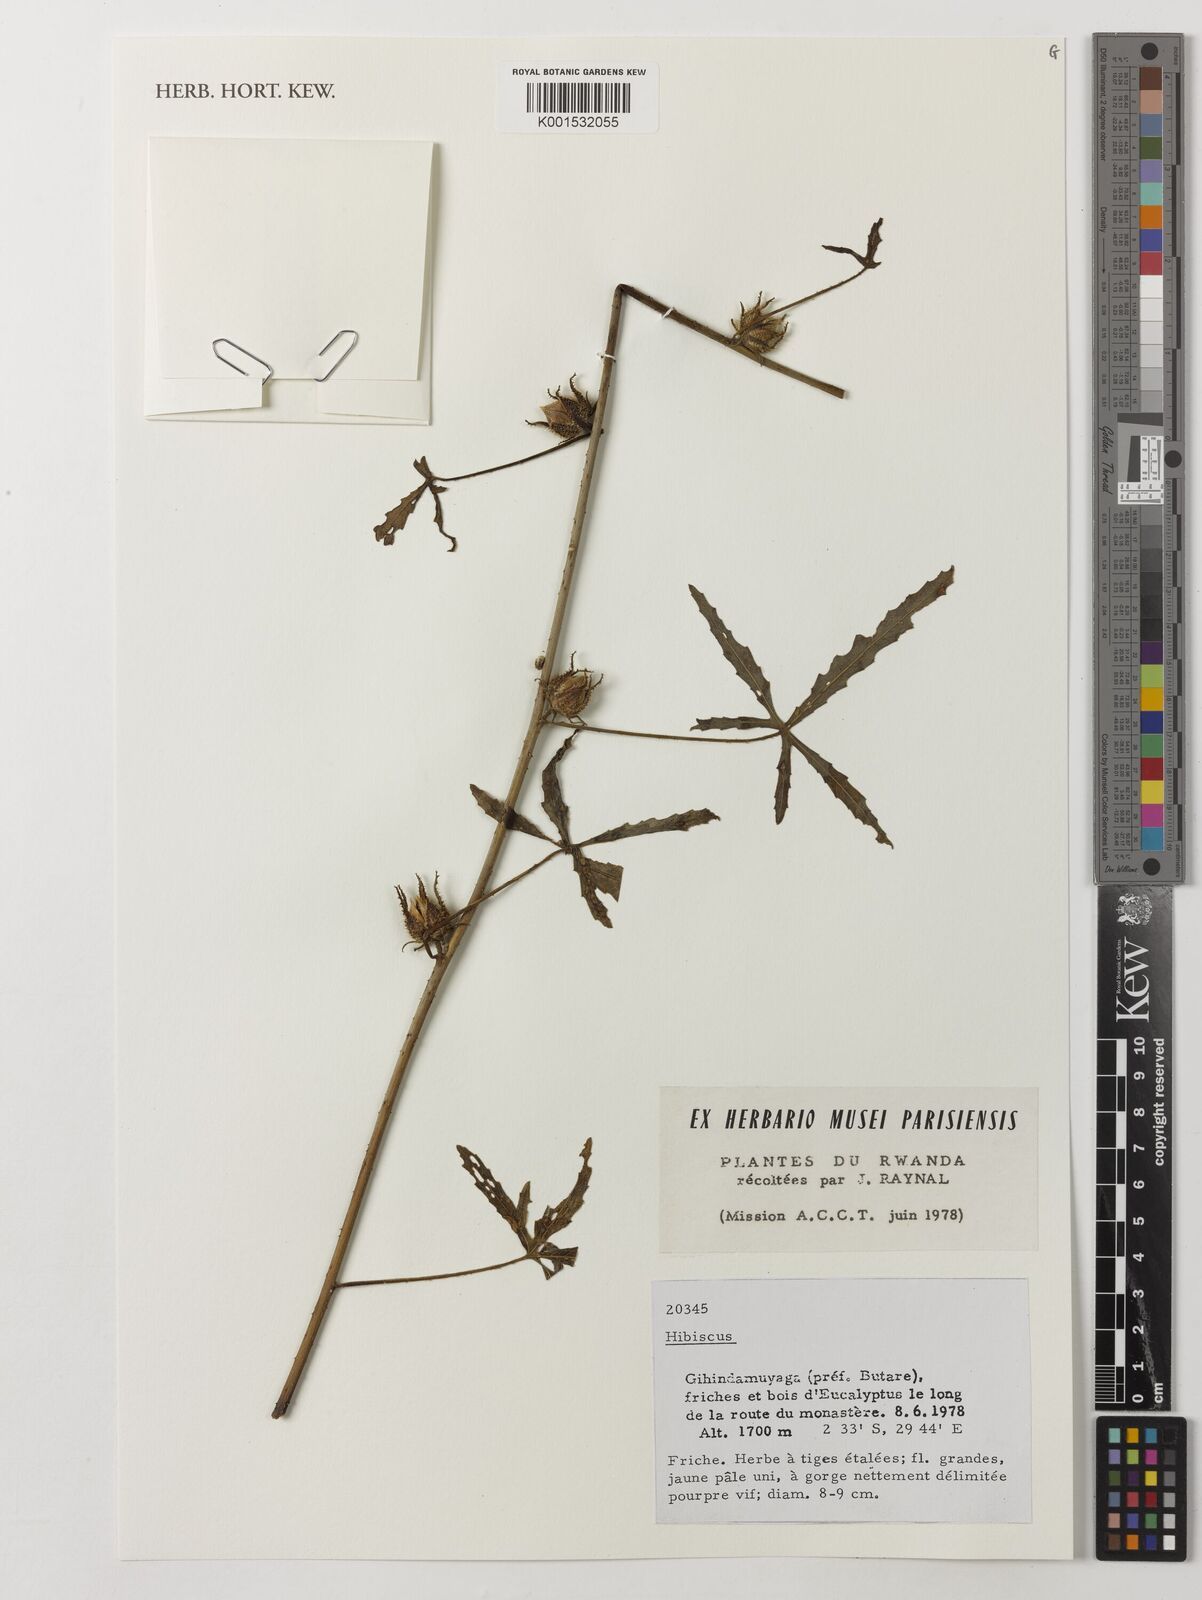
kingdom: Plantae
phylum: Tracheophyta
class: Magnoliopsida
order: Malvales
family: Malvaceae
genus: Hibiscus
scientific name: Hibiscus
